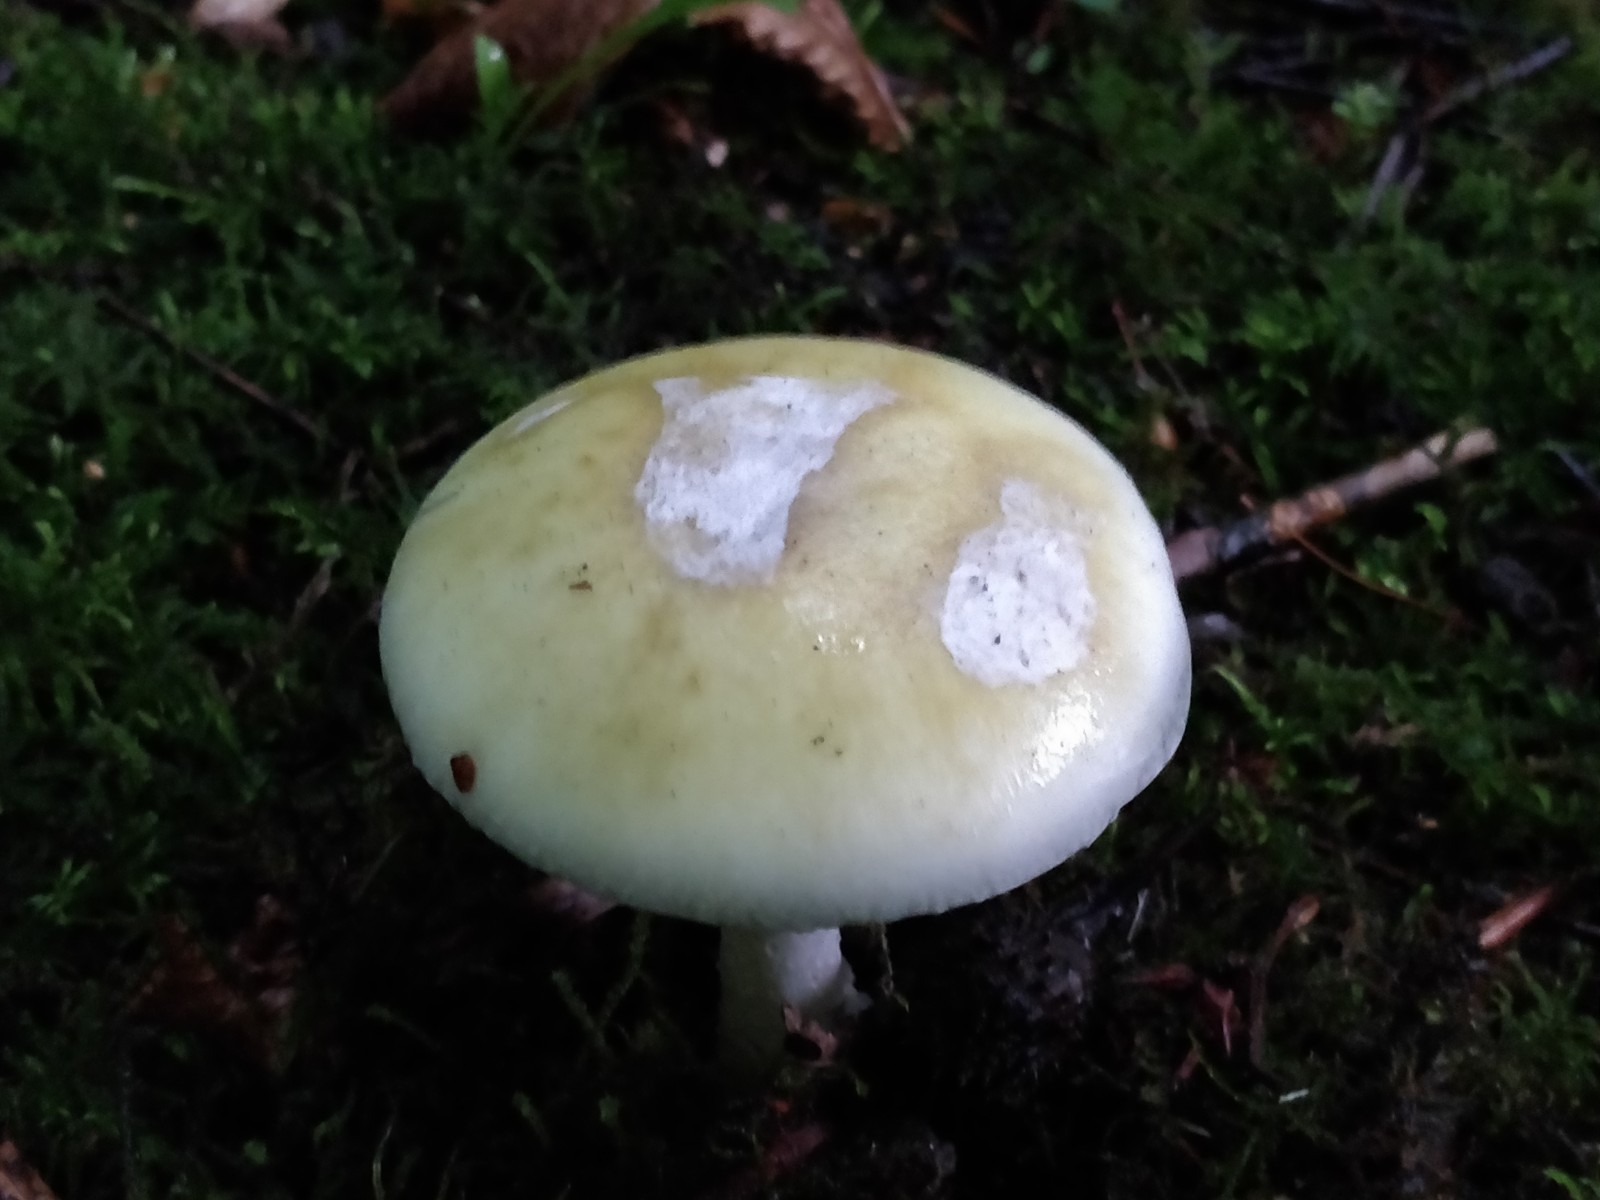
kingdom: Fungi
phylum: Basidiomycota
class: Agaricomycetes
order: Agaricales
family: Amanitaceae
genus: Amanita
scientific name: Amanita phalloides
